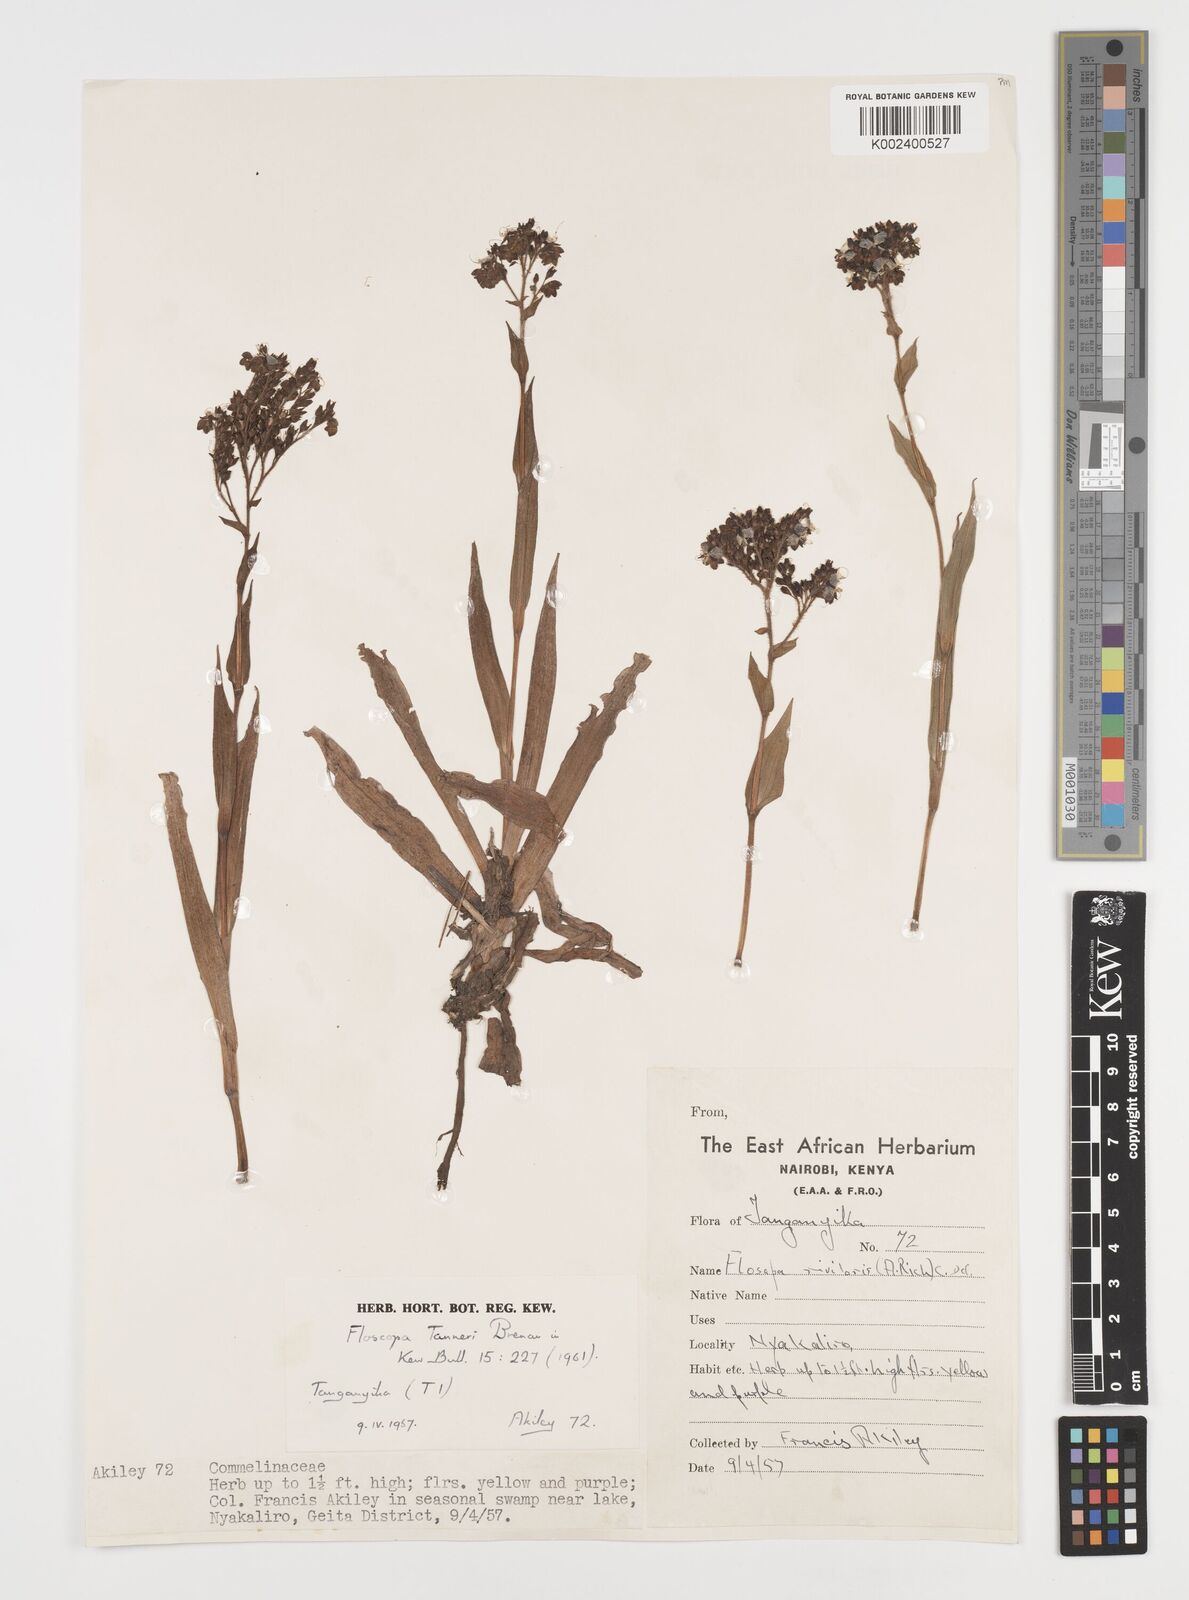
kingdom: Plantae
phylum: Tracheophyta
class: Liliopsida
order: Commelinales
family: Commelinaceae
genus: Floscopa
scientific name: Floscopa tanneri
